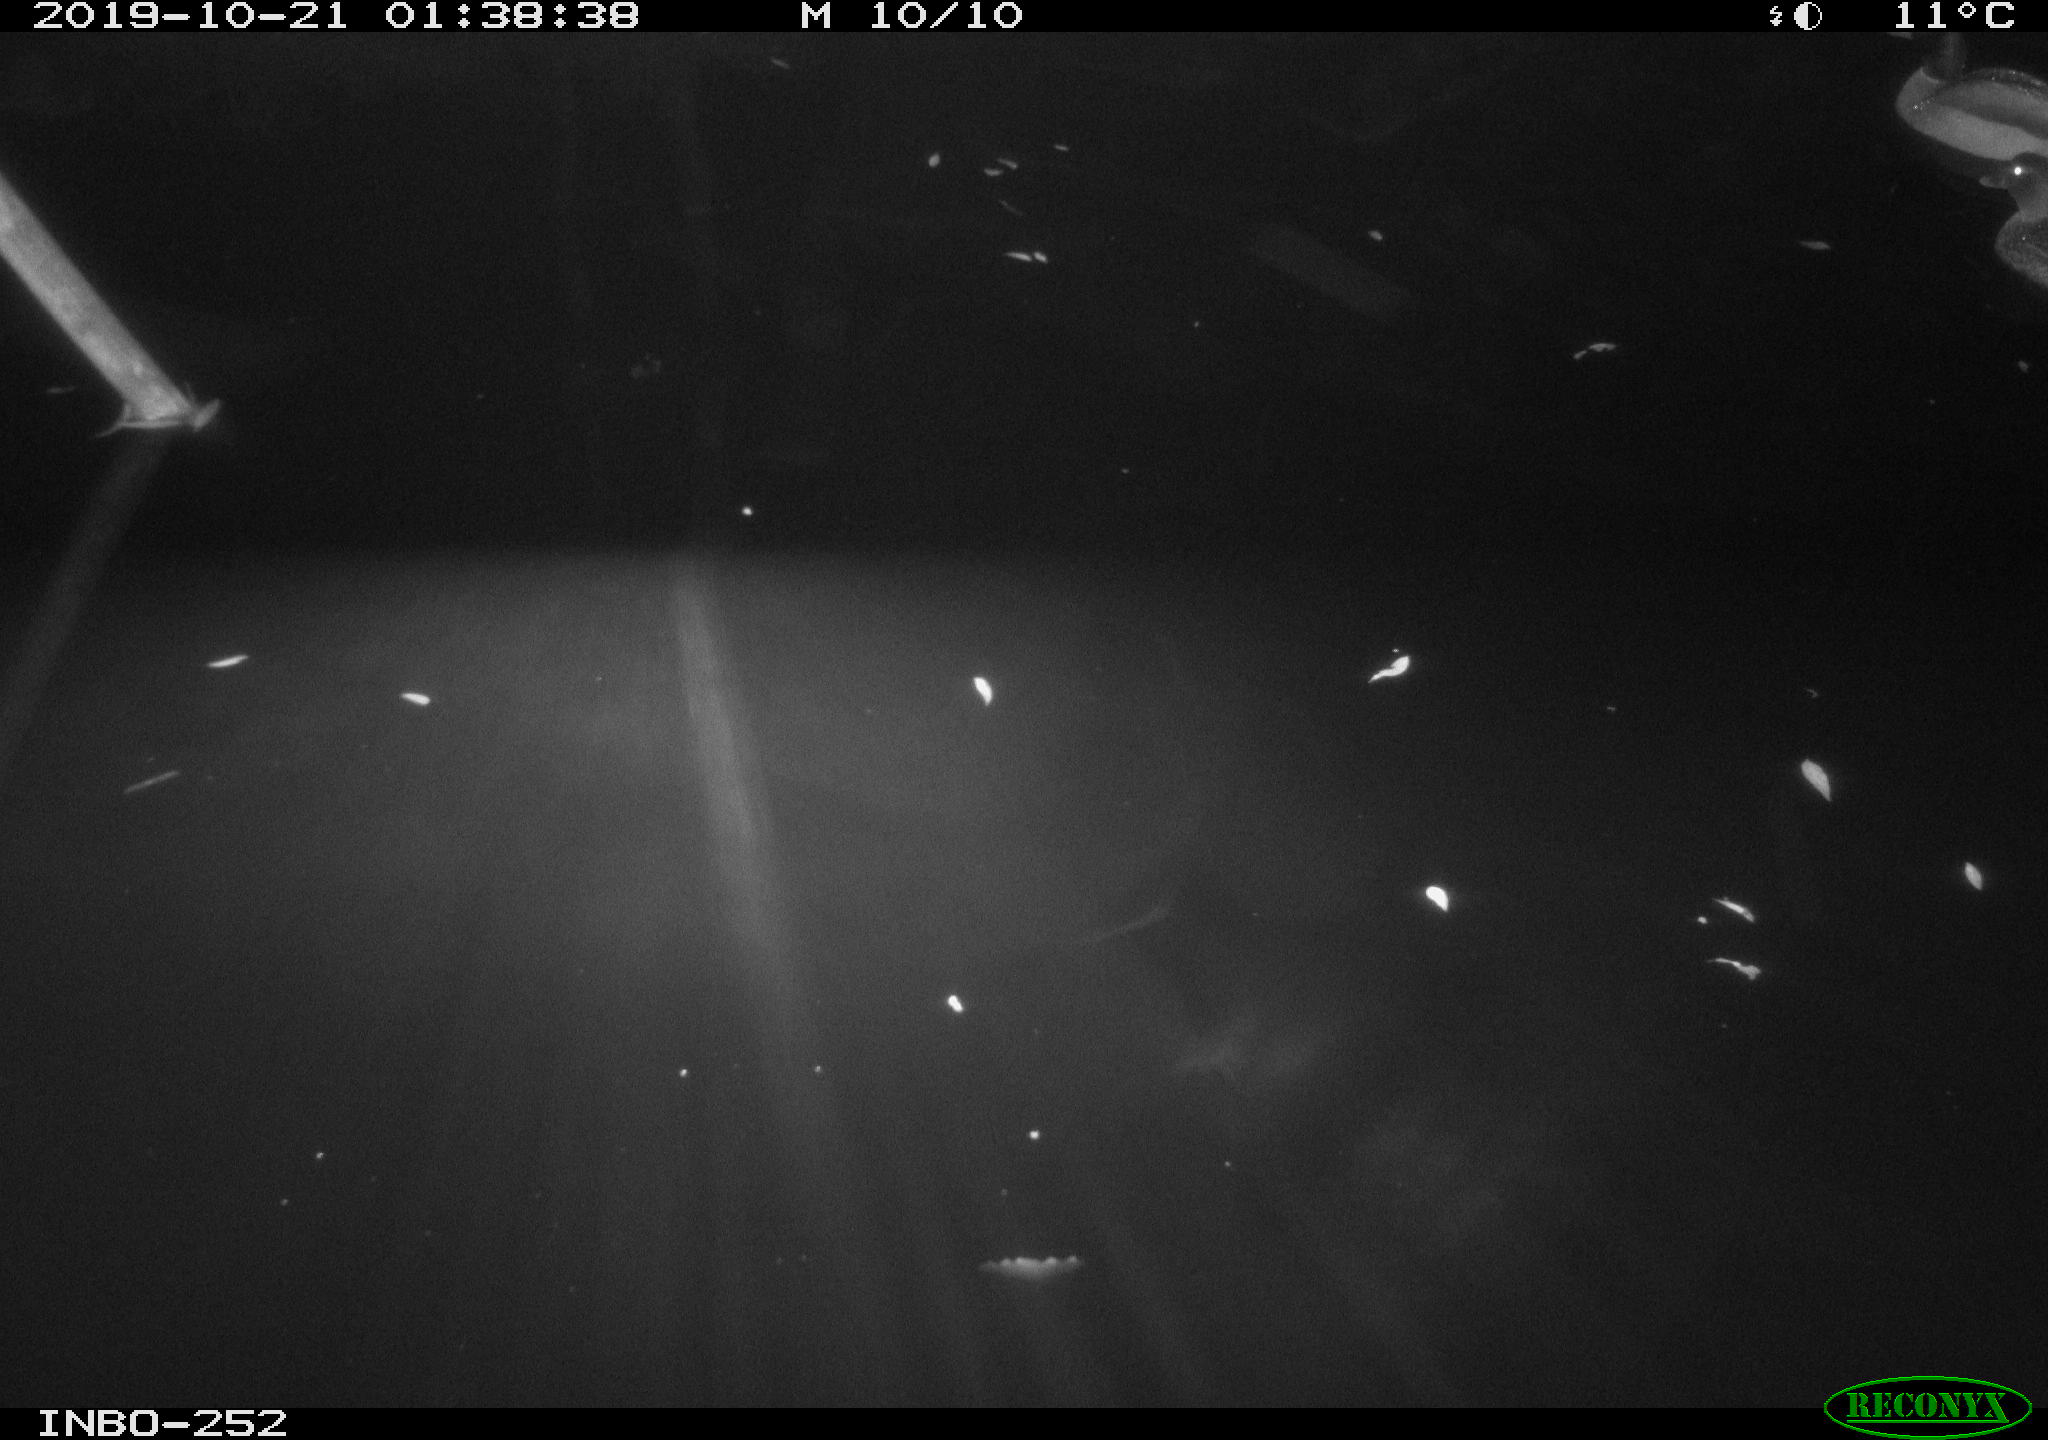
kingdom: Animalia
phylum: Chordata
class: Aves
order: Anseriformes
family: Anatidae
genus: Anas
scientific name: Anas platyrhynchos
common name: Mallard
